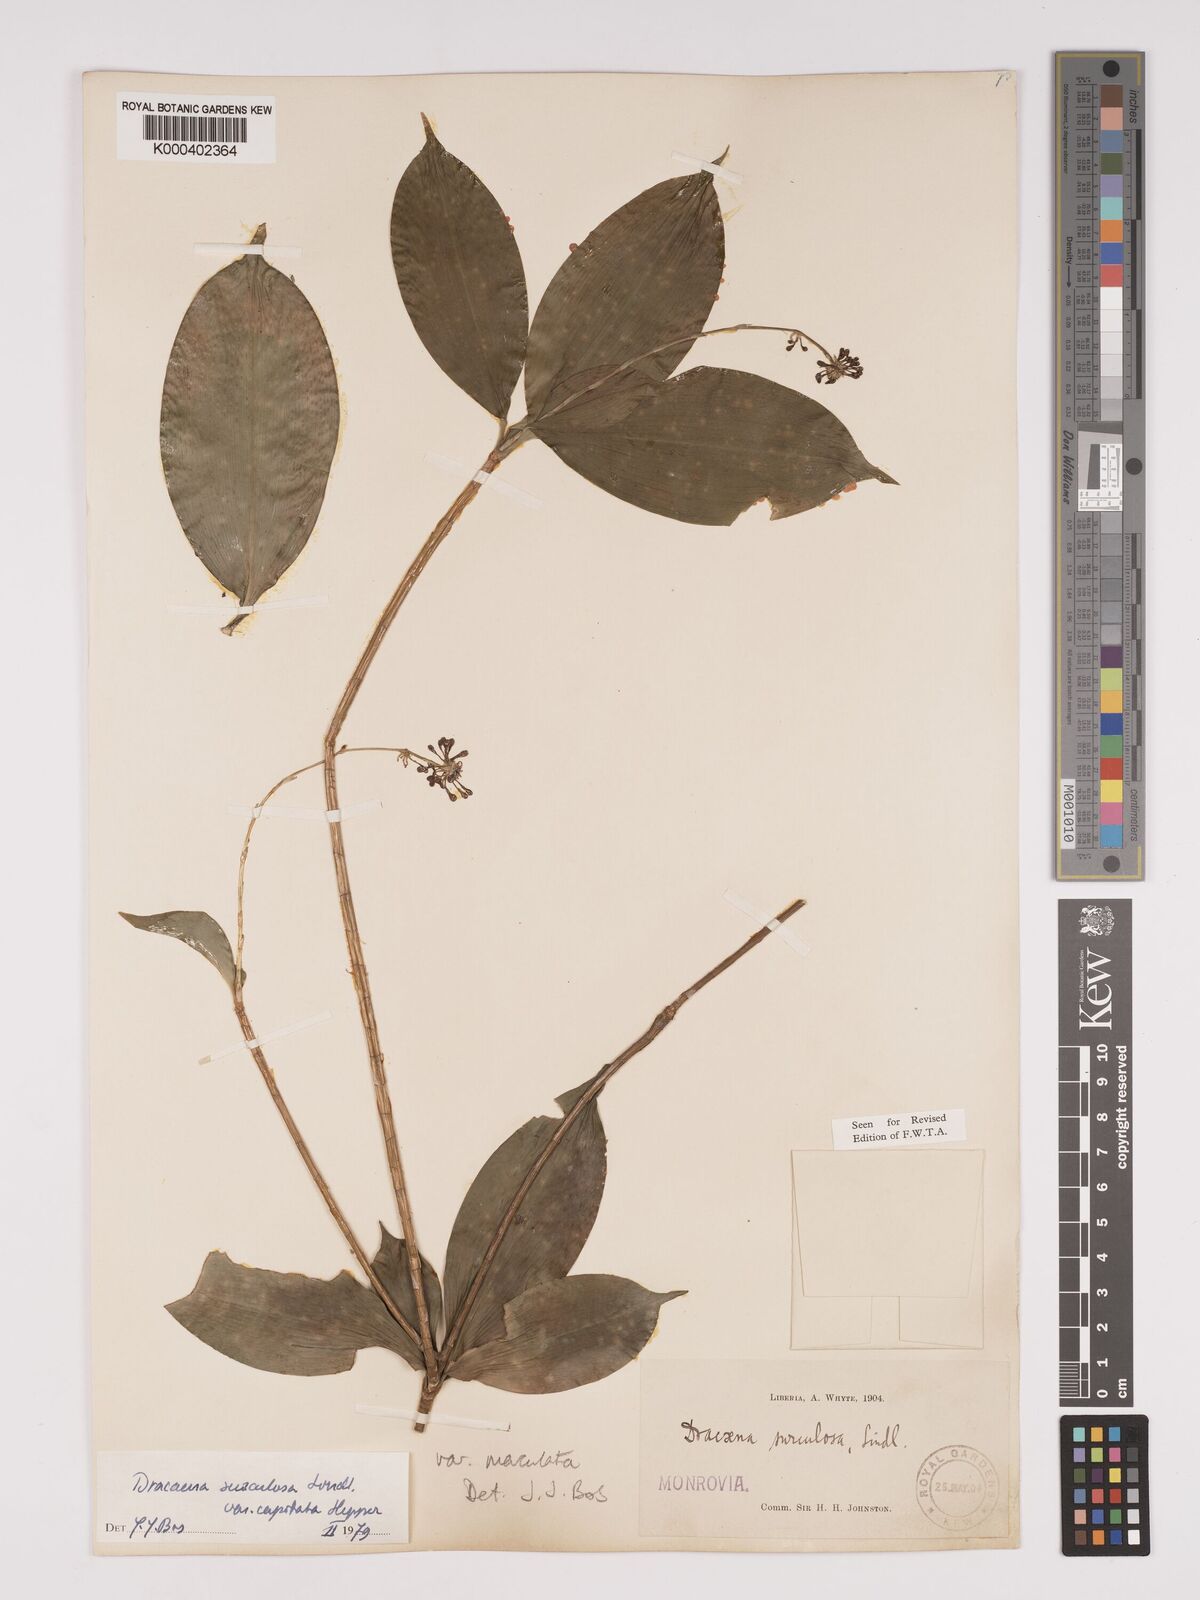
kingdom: Plantae
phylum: Tracheophyta
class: Liliopsida
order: Asparagales
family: Asparagaceae
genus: Dracaena
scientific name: Dracaena surculosa
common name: Spotted dracaena
